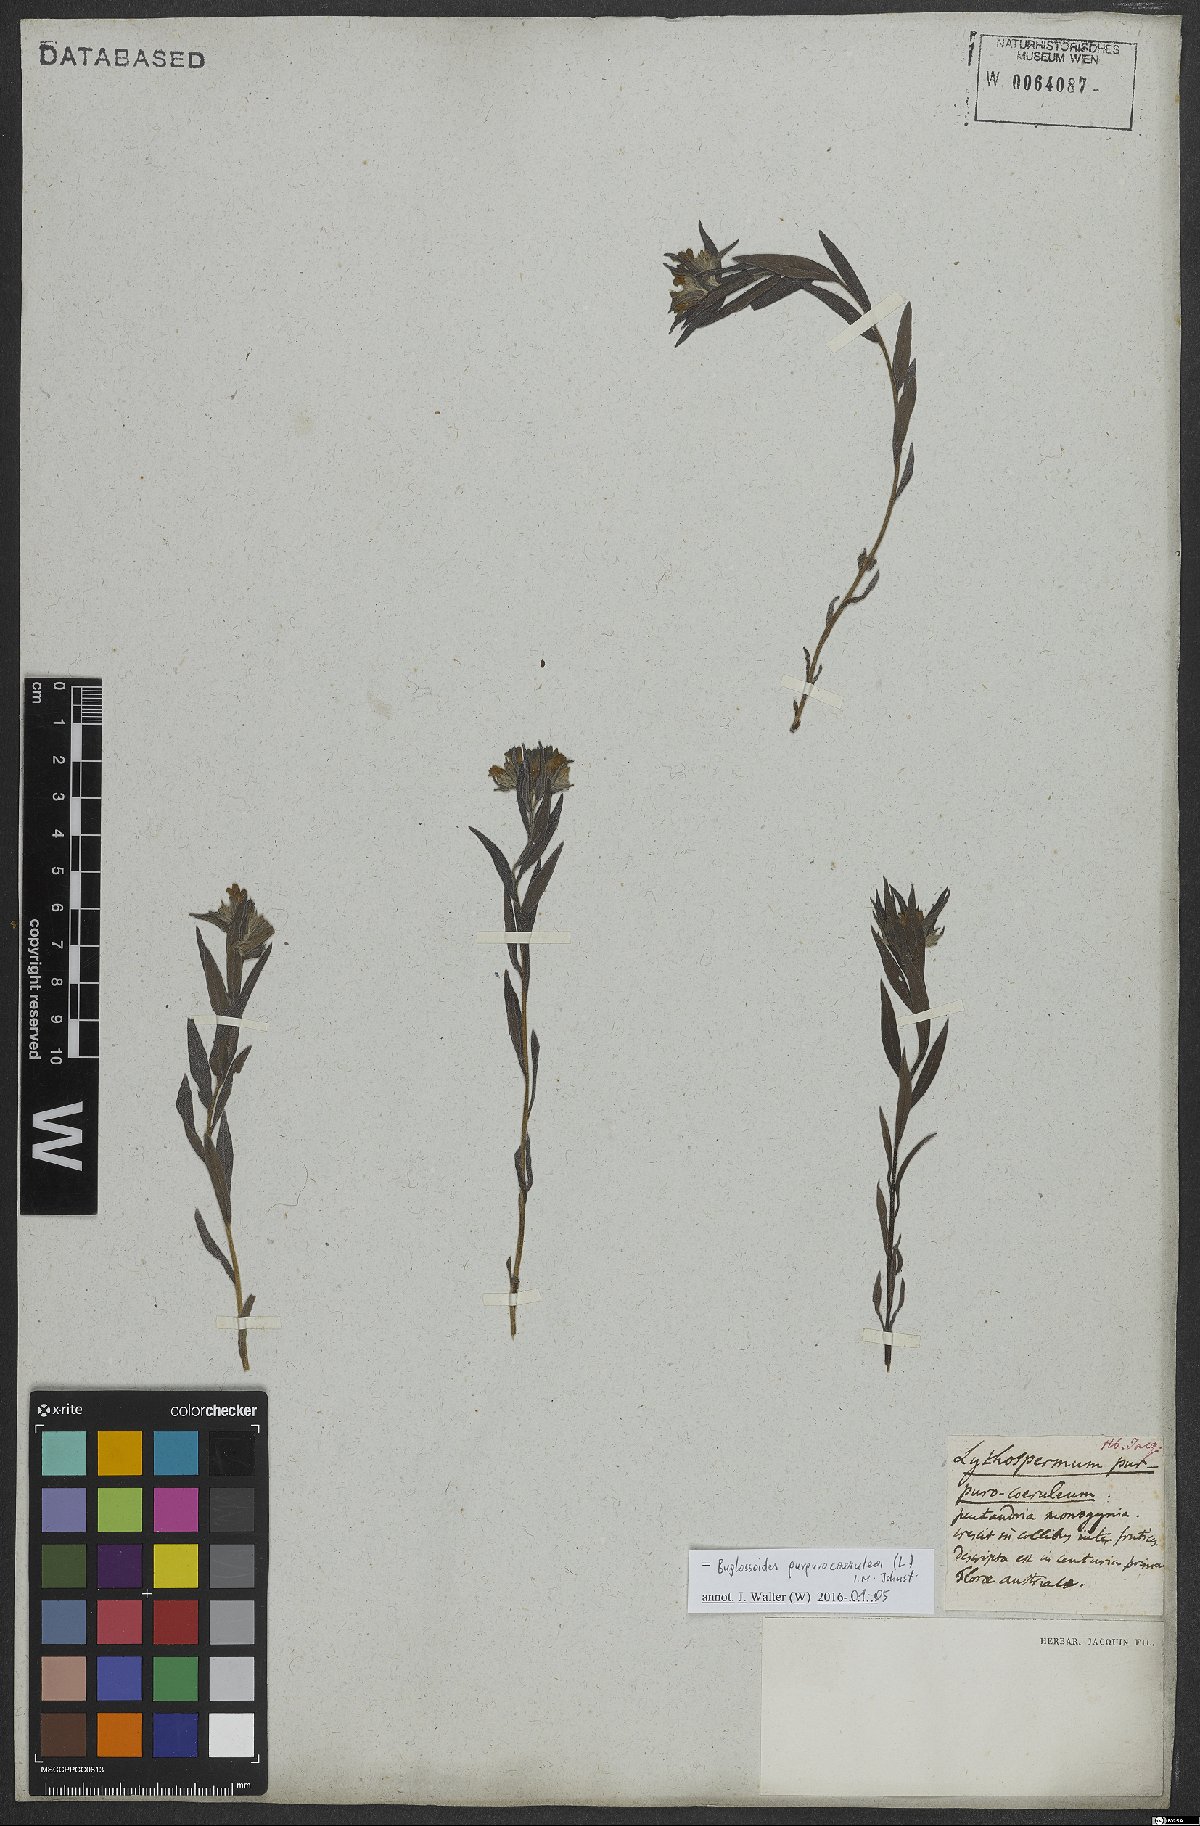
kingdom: Plantae
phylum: Tracheophyta
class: Magnoliopsida
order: Boraginales
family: Boraginaceae
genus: Aegonychon
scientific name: Aegonychon purpurocaeruleum
